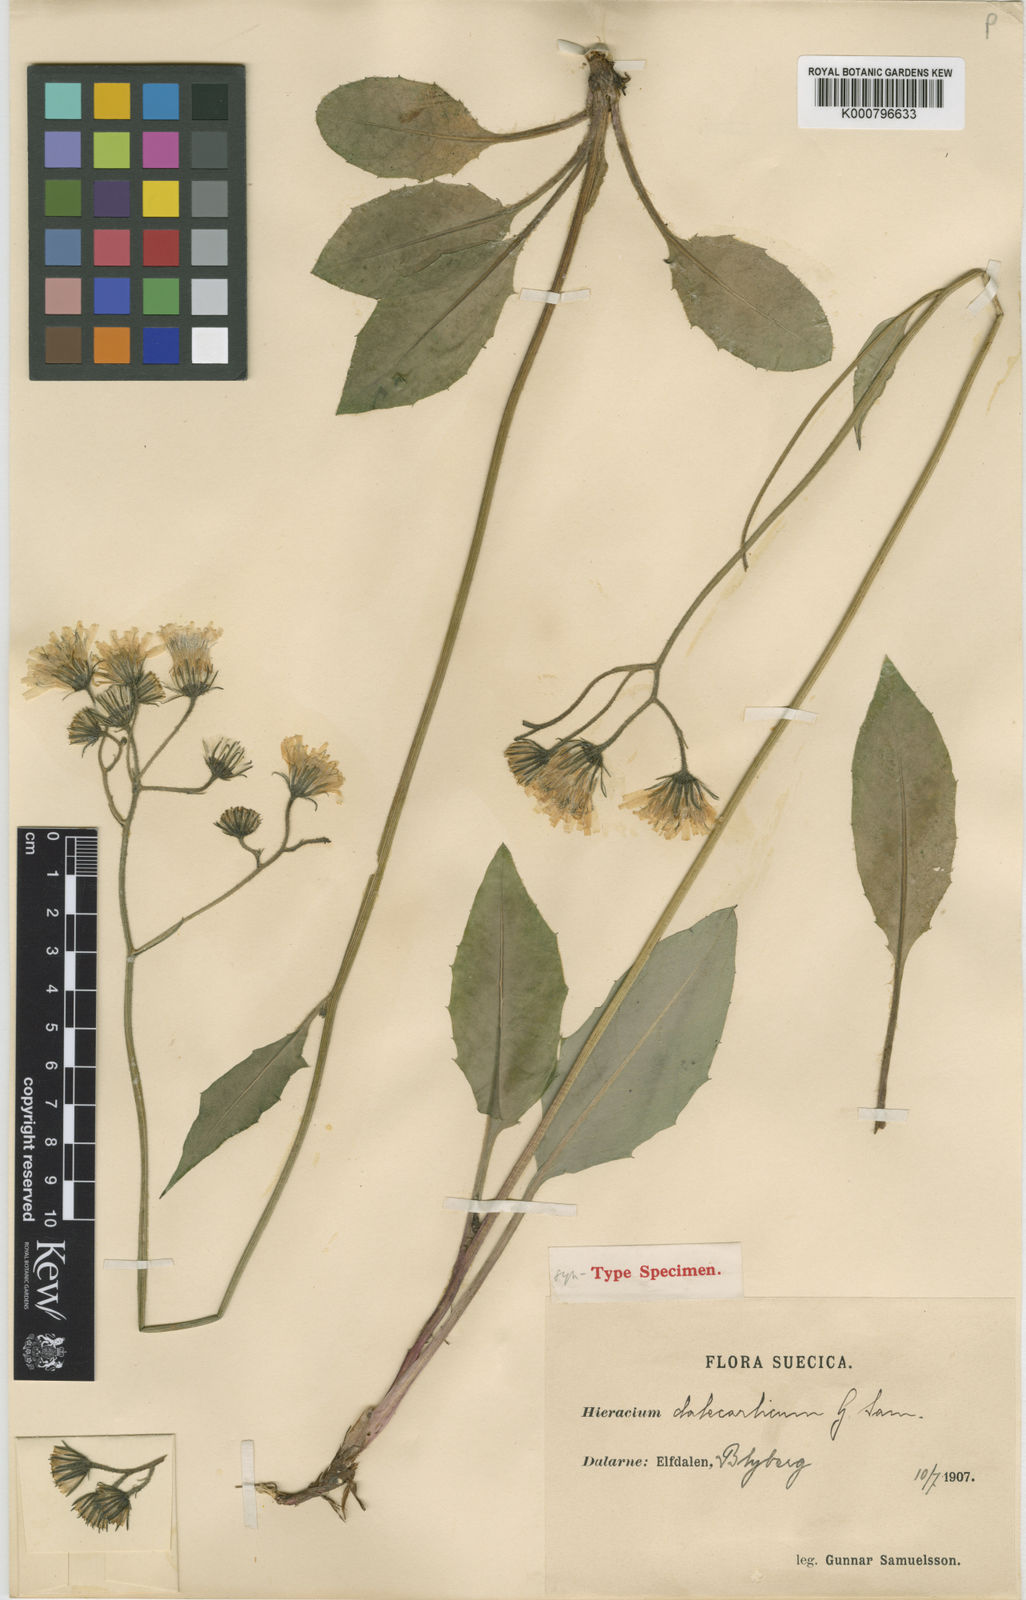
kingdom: Plantae
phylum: Tracheophyta
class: Magnoliopsida
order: Asterales
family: Asteraceae
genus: Hieracium
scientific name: Hieracium murorum
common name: Wall hawkweed
